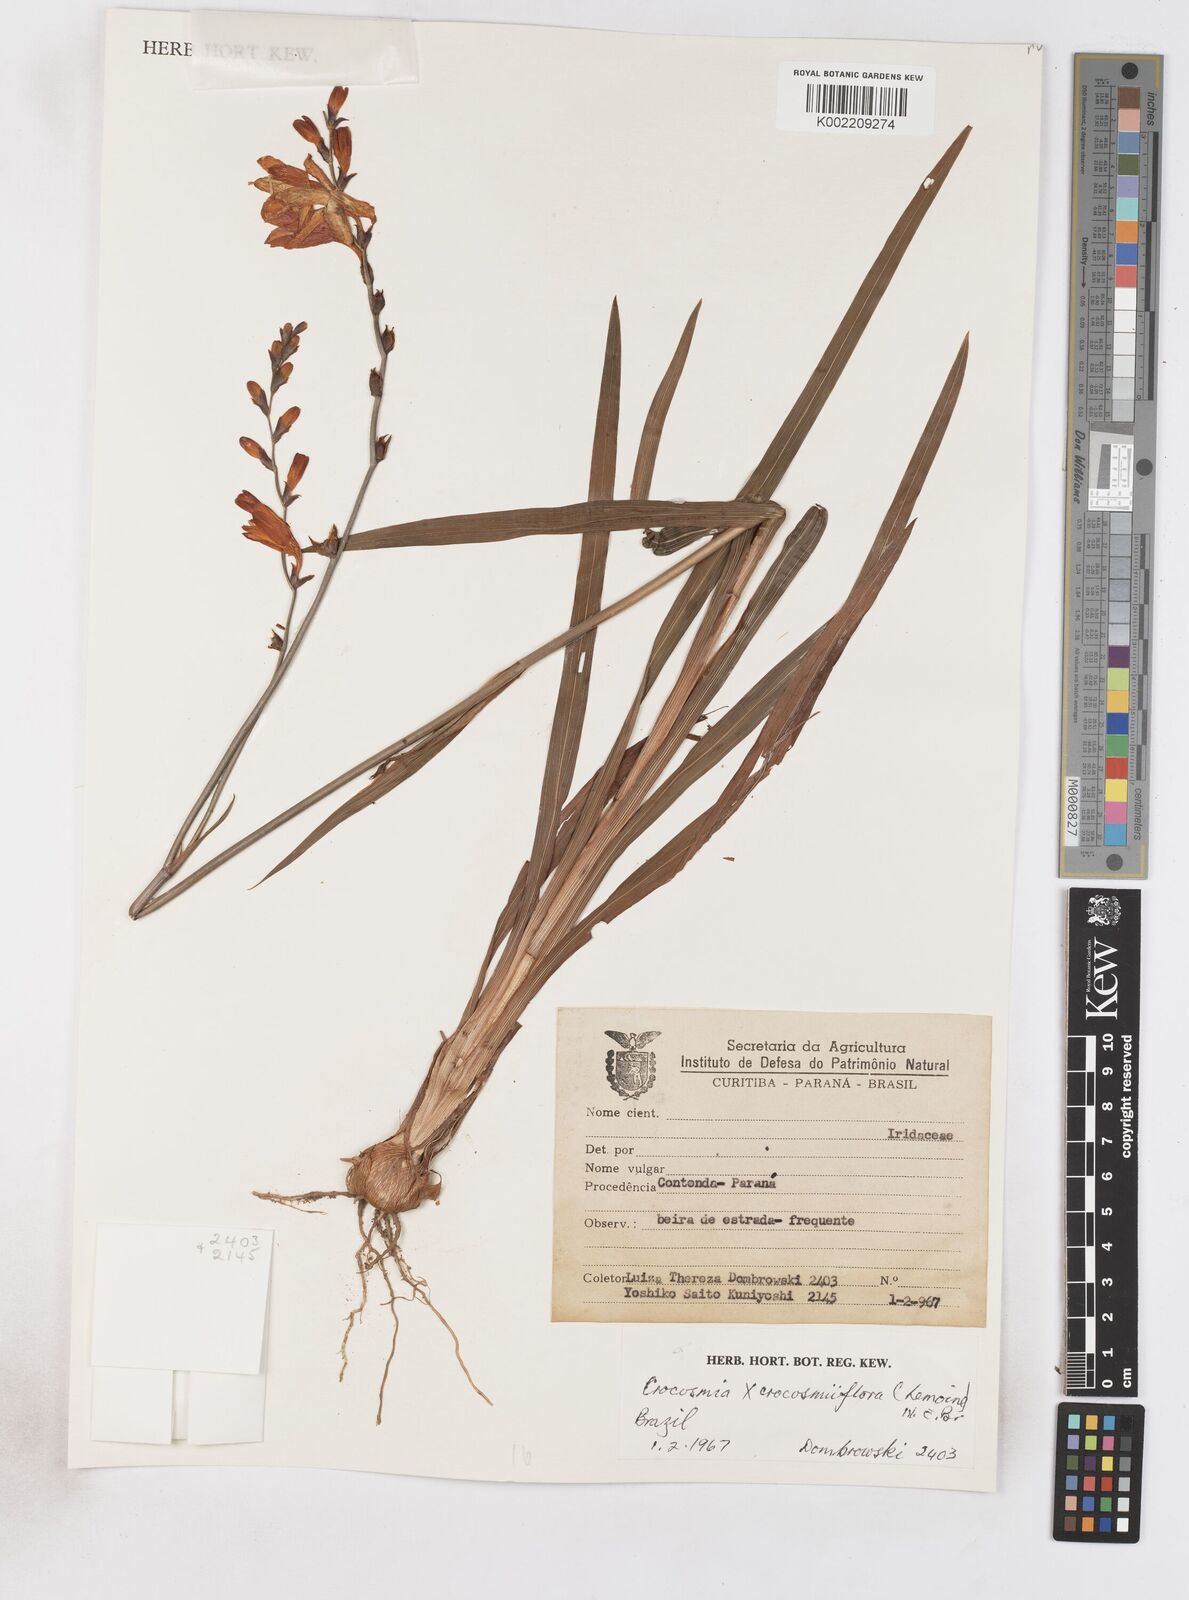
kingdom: Plantae
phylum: Tracheophyta
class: Liliopsida
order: Asparagales
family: Iridaceae
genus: Crocosmia
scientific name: Crocosmia crocosmiiflora
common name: Montbretia
